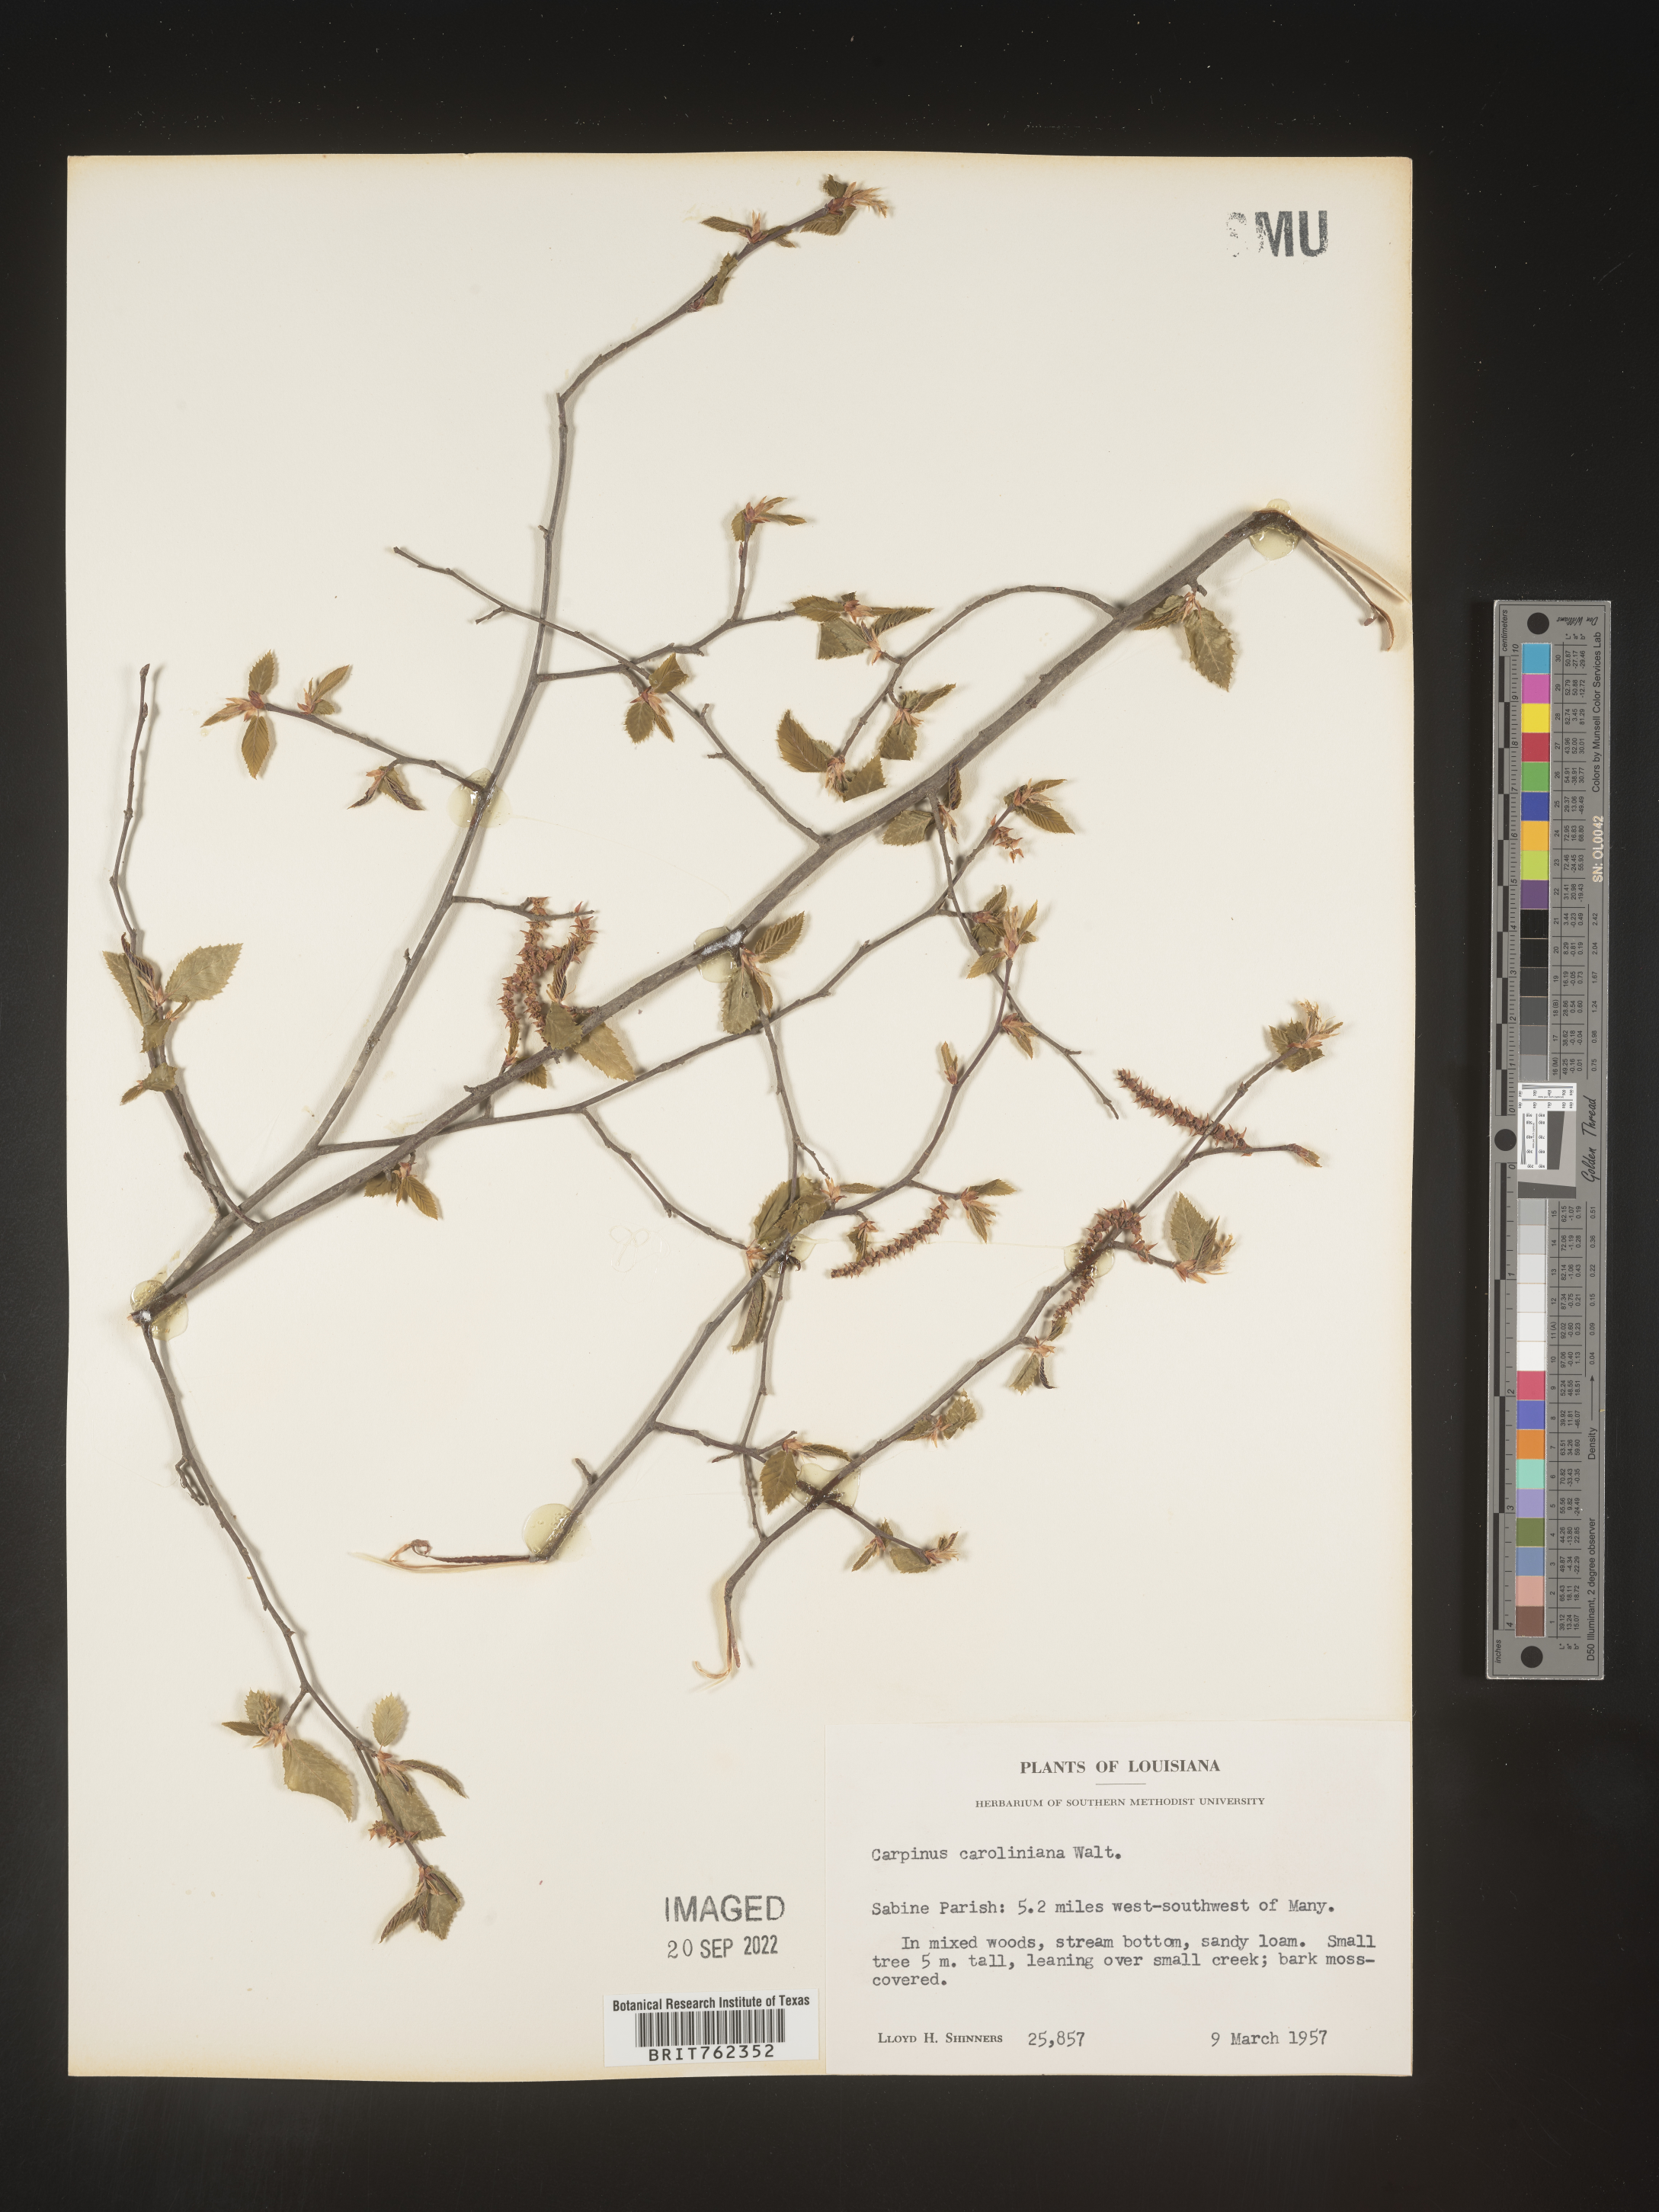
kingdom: Plantae
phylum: Tracheophyta
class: Magnoliopsida
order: Fagales
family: Betulaceae
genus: Carpinus
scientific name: Carpinus caroliniana
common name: American hornbeam
